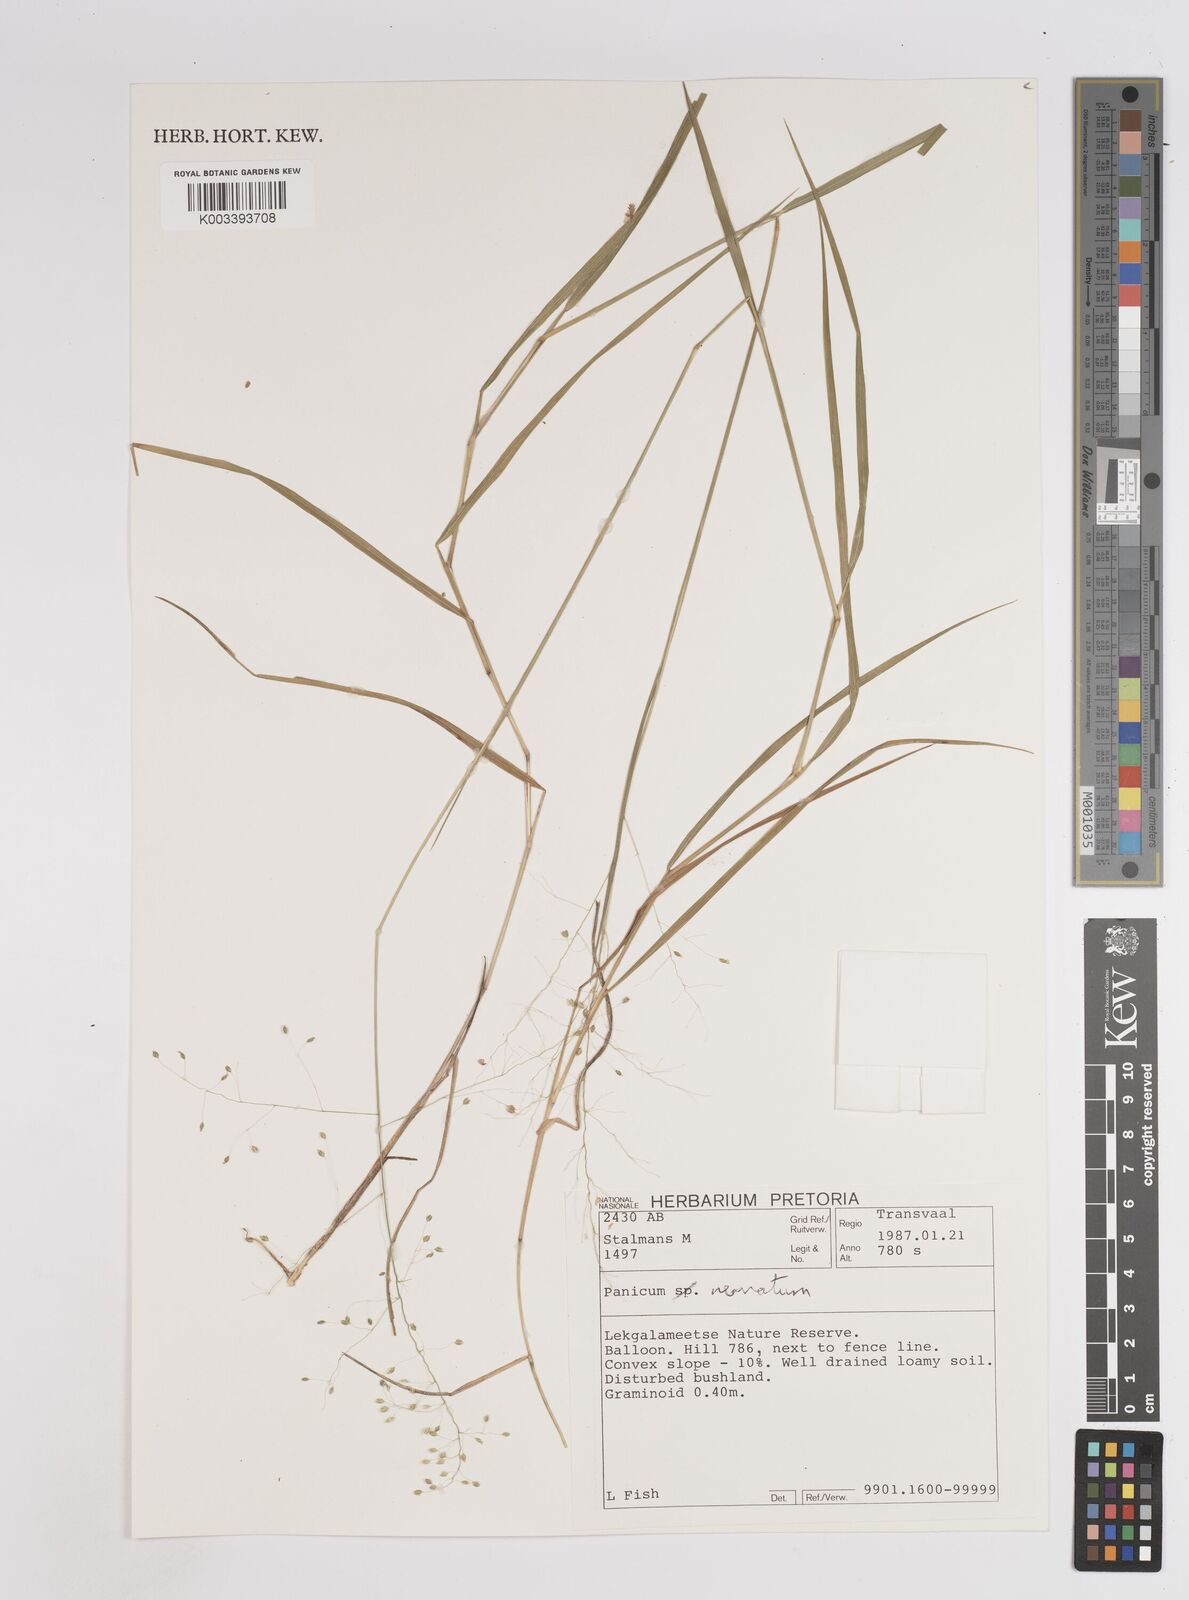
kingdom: Plantae
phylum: Tracheophyta
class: Liliopsida
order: Poales
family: Poaceae
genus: Trichanthecium
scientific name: Trichanthecium nervatum
